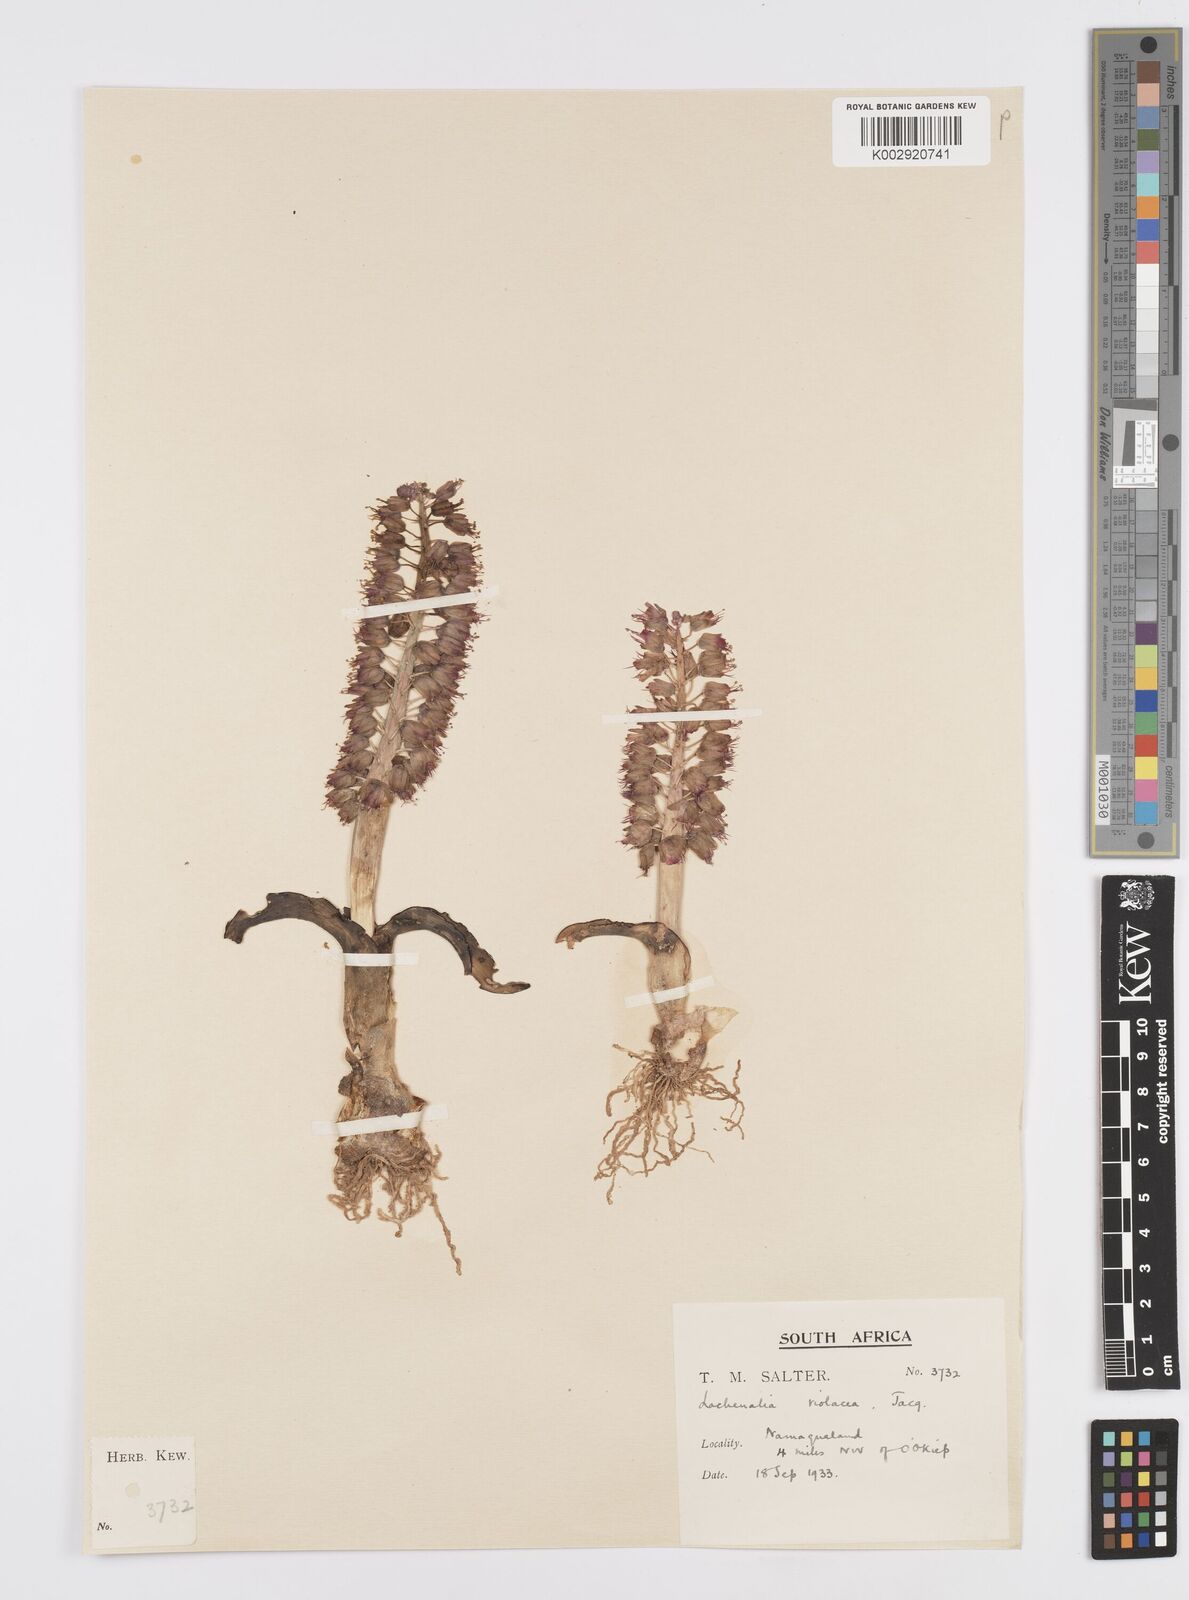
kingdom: Plantae
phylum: Tracheophyta
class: Liliopsida
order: Asparagales
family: Asparagaceae
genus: Lachenalia
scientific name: Lachenalia violacea
